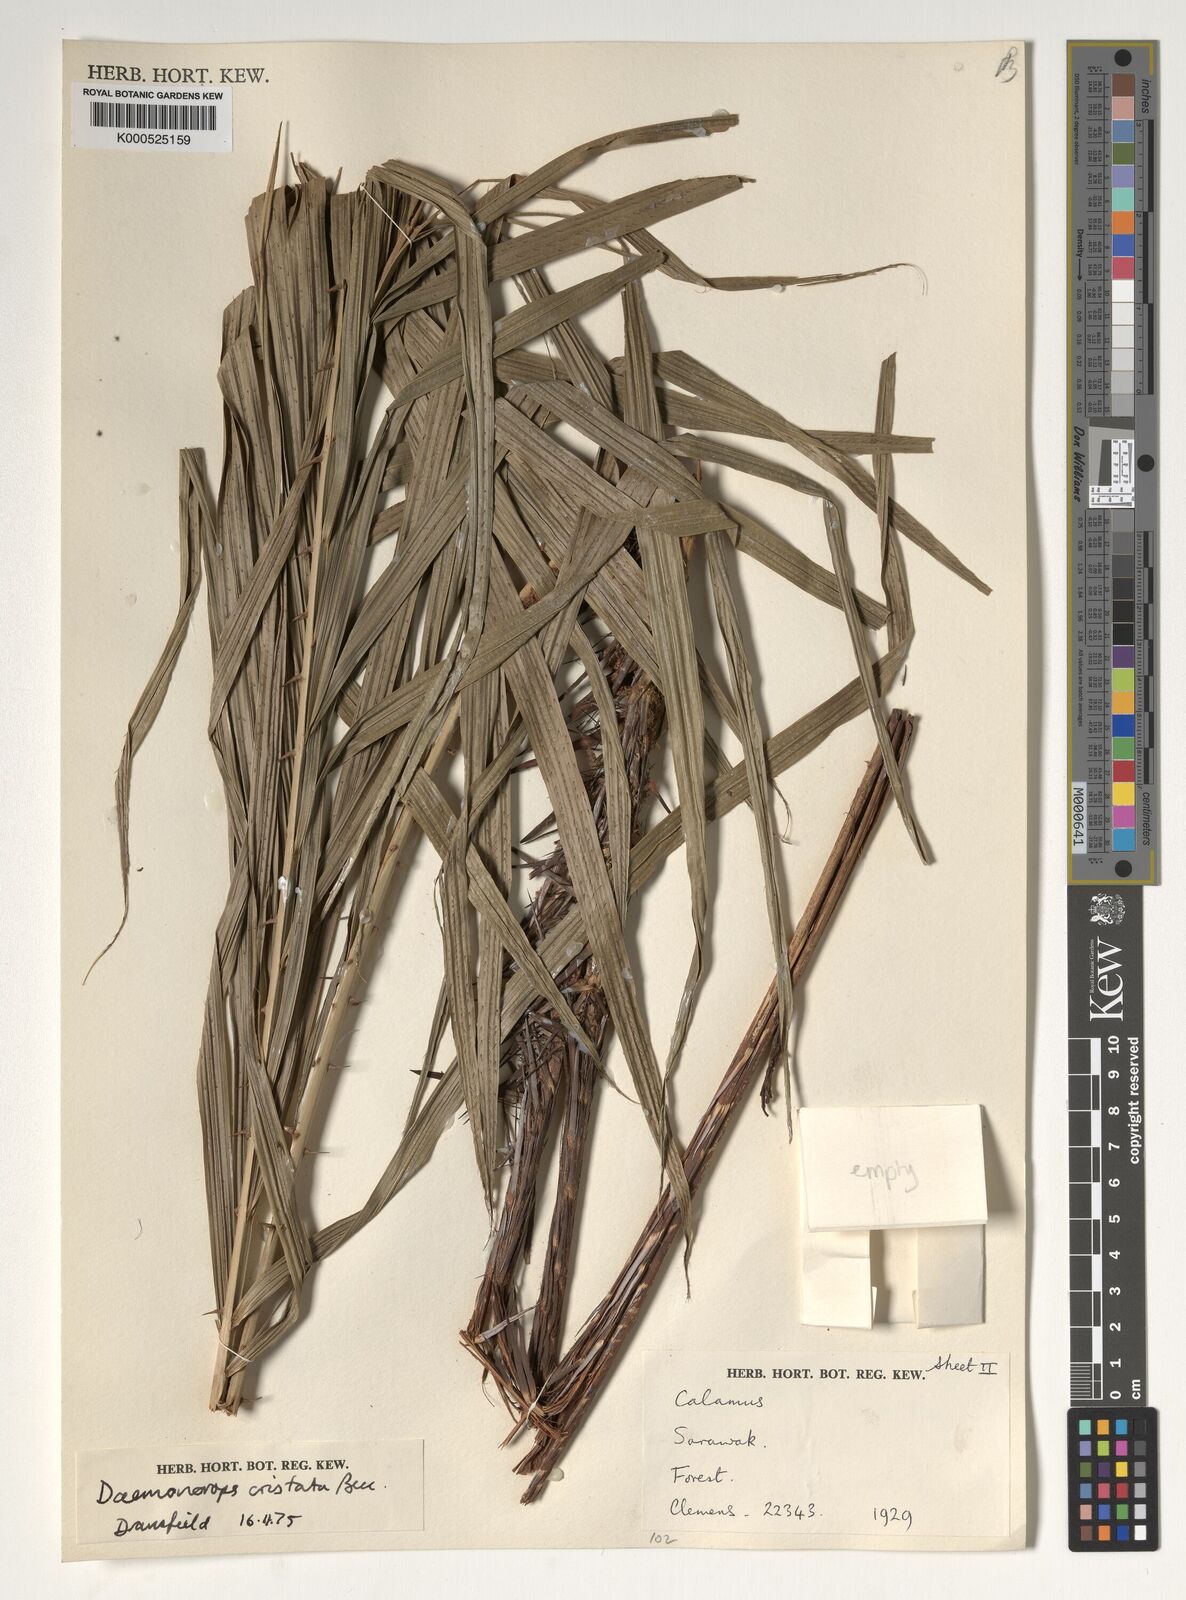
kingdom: Plantae
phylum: Tracheophyta
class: Liliopsida
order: Arecales
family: Arecaceae
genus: Calamus
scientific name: Calamus cristatus
